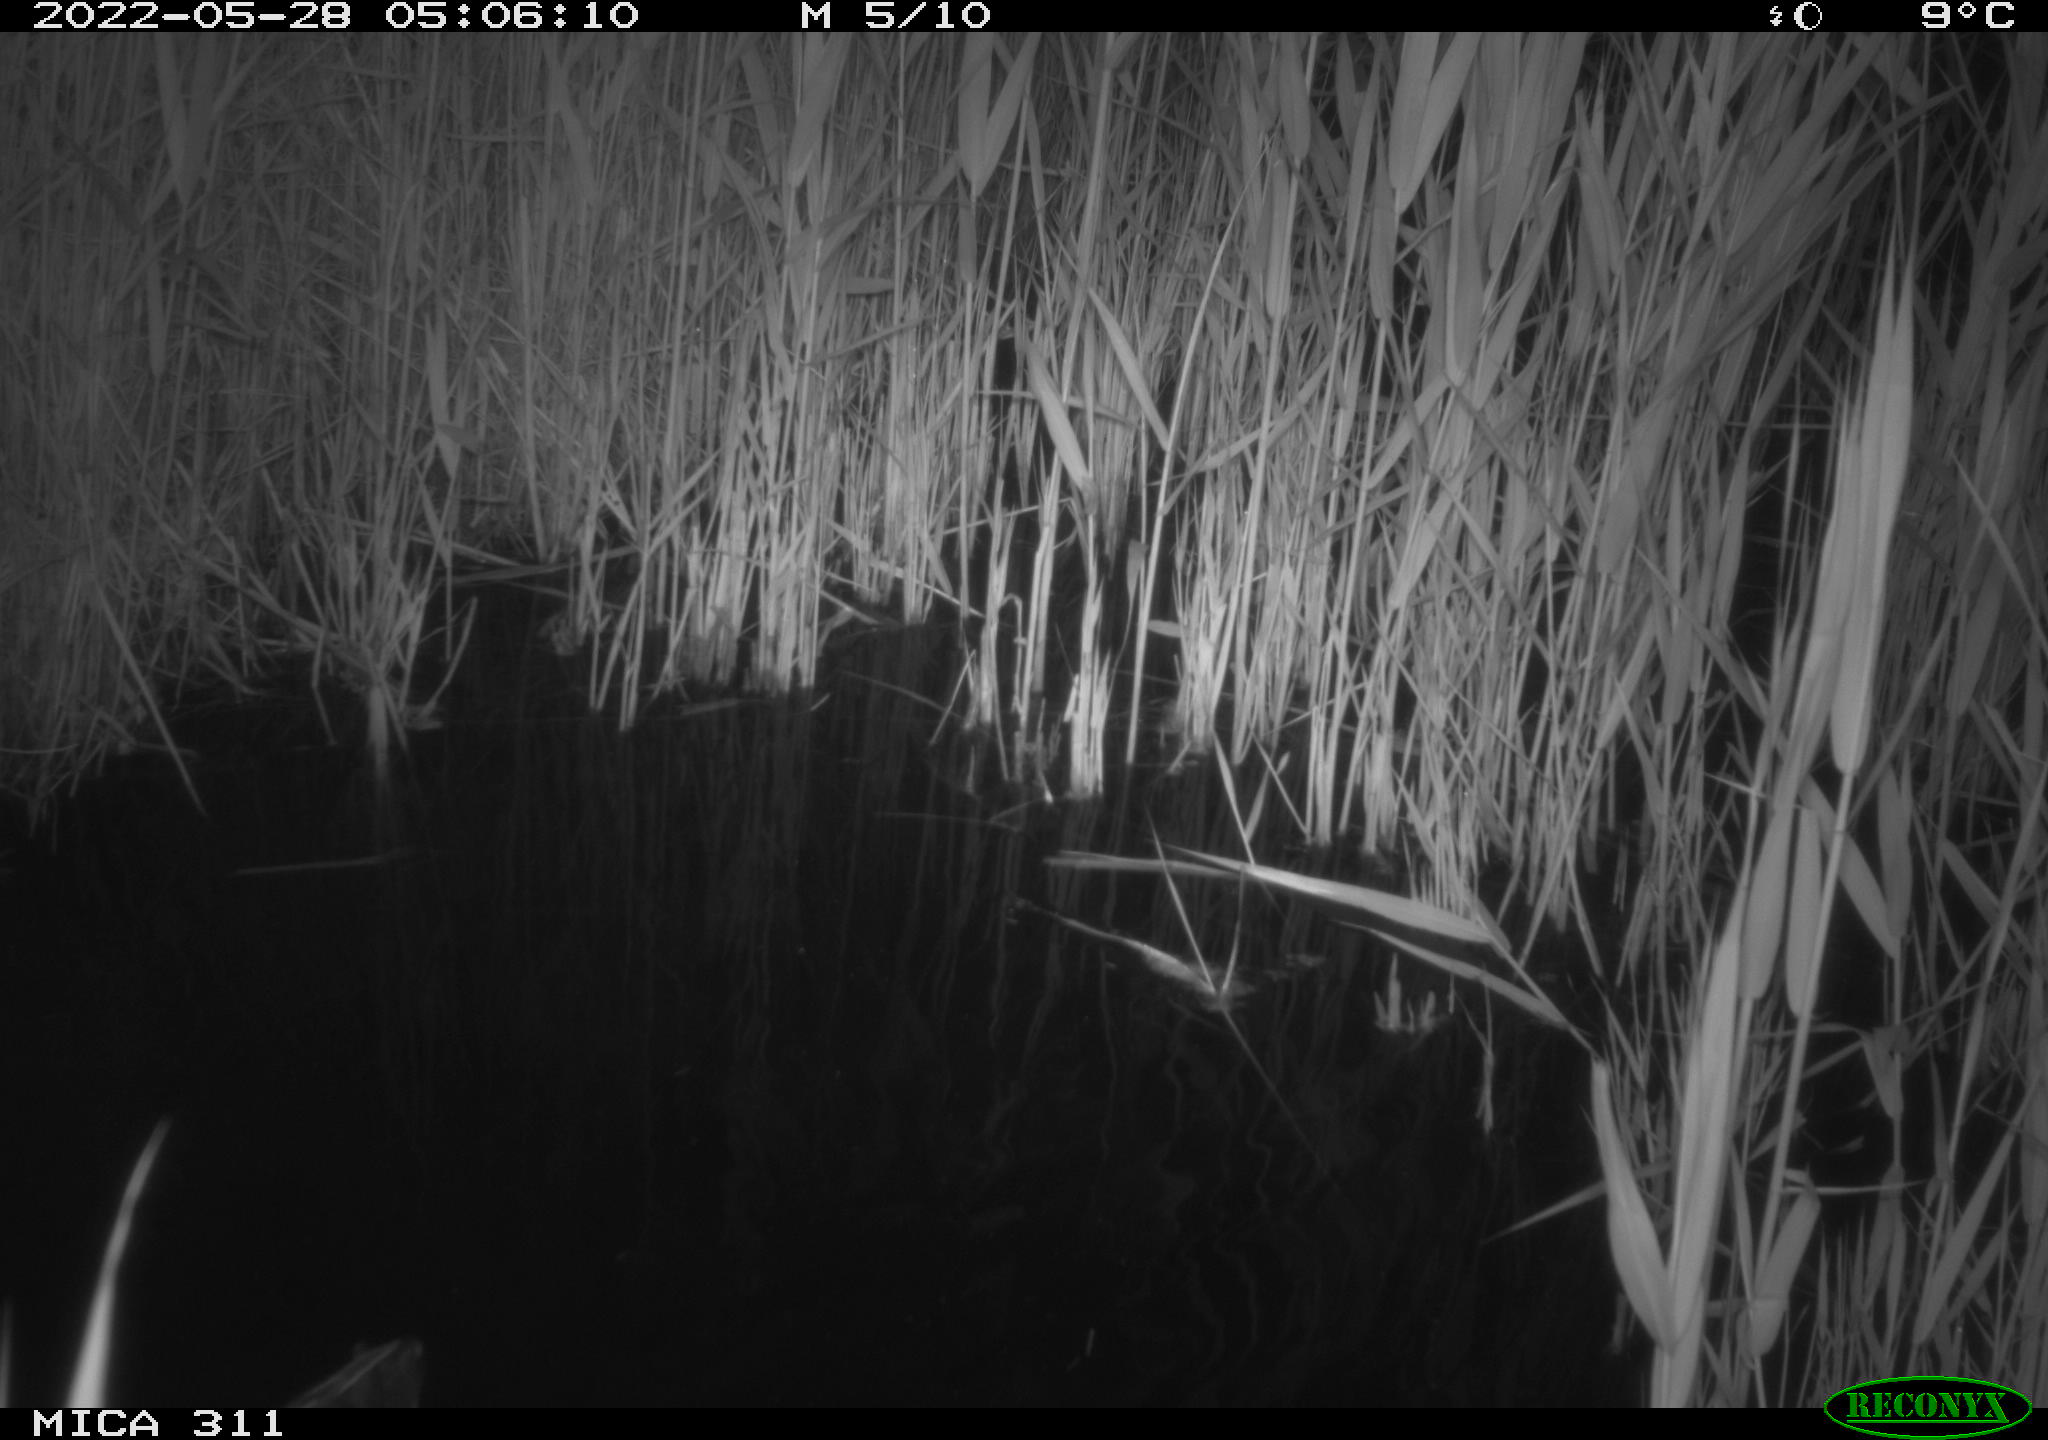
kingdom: Animalia
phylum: Chordata
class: Aves
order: Gruiformes
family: Rallidae
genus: Gallinula
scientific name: Gallinula chloropus
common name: Common moorhen
